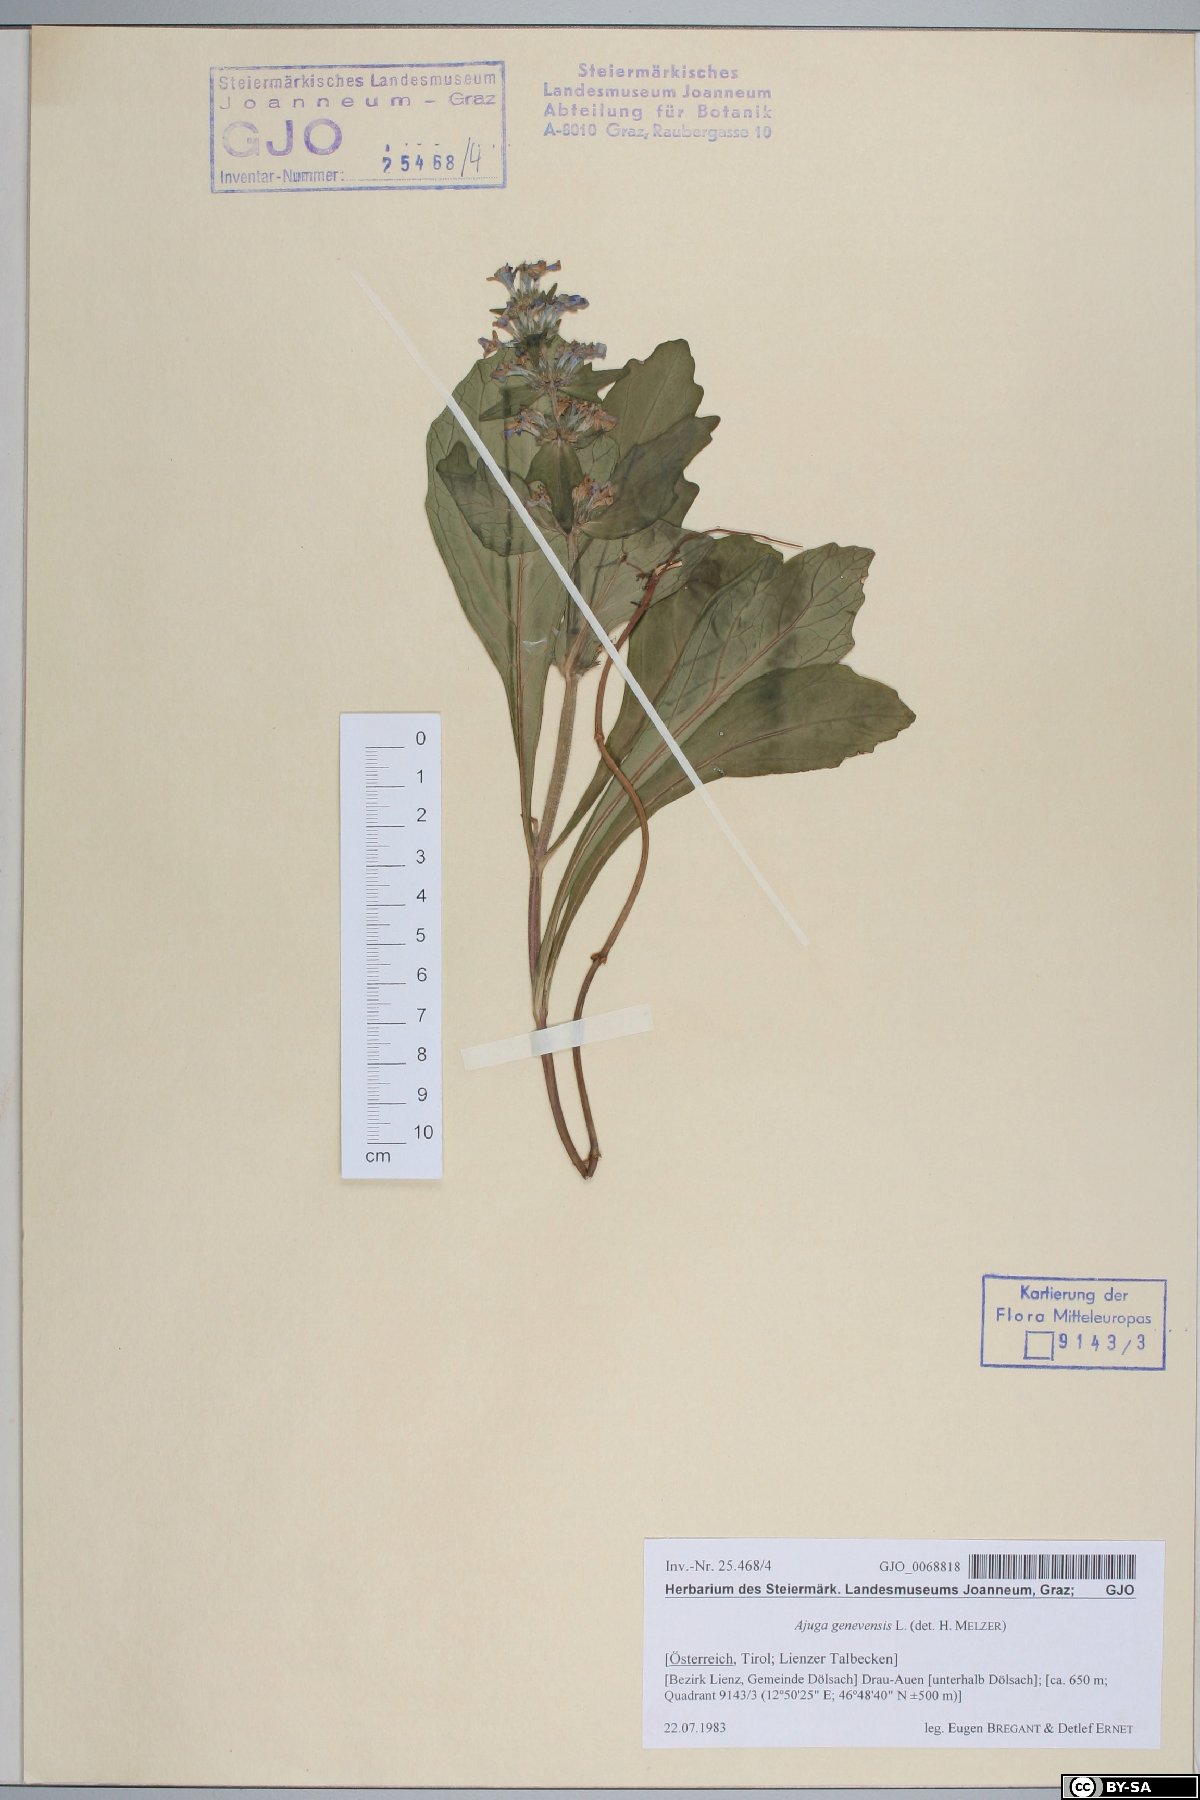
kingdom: Plantae
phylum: Tracheophyta
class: Magnoliopsida
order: Lamiales
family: Lamiaceae
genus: Ajuga
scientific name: Ajuga genevensis
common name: Blue bugle
